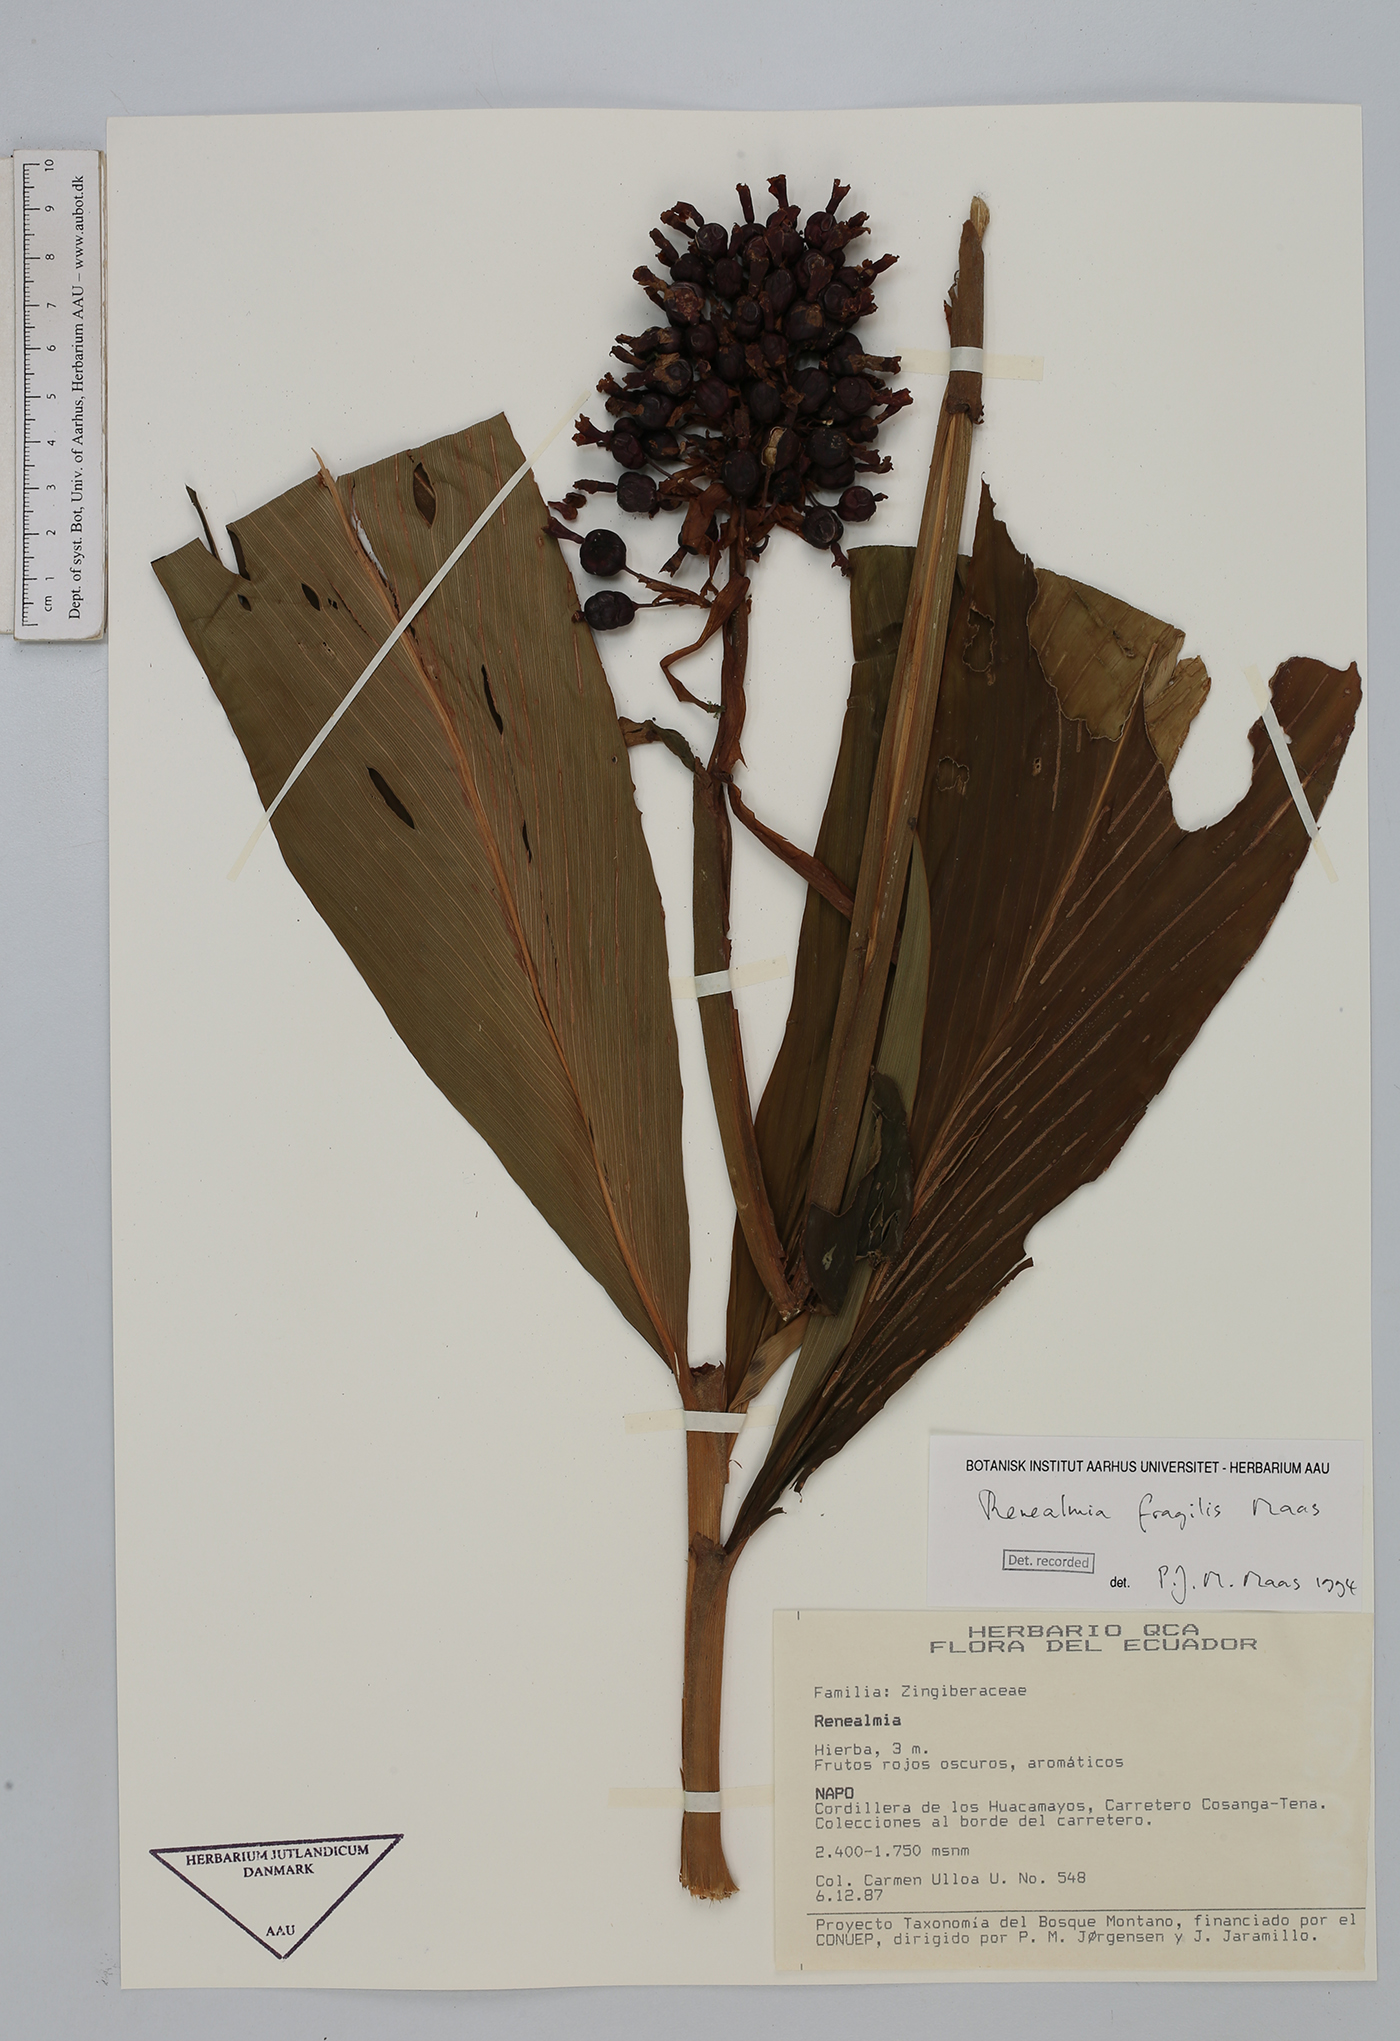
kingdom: Plantae
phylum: Tracheophyta
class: Liliopsida
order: Zingiberales
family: Zingiberaceae
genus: Renealmia
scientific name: Renealmia fragilis
